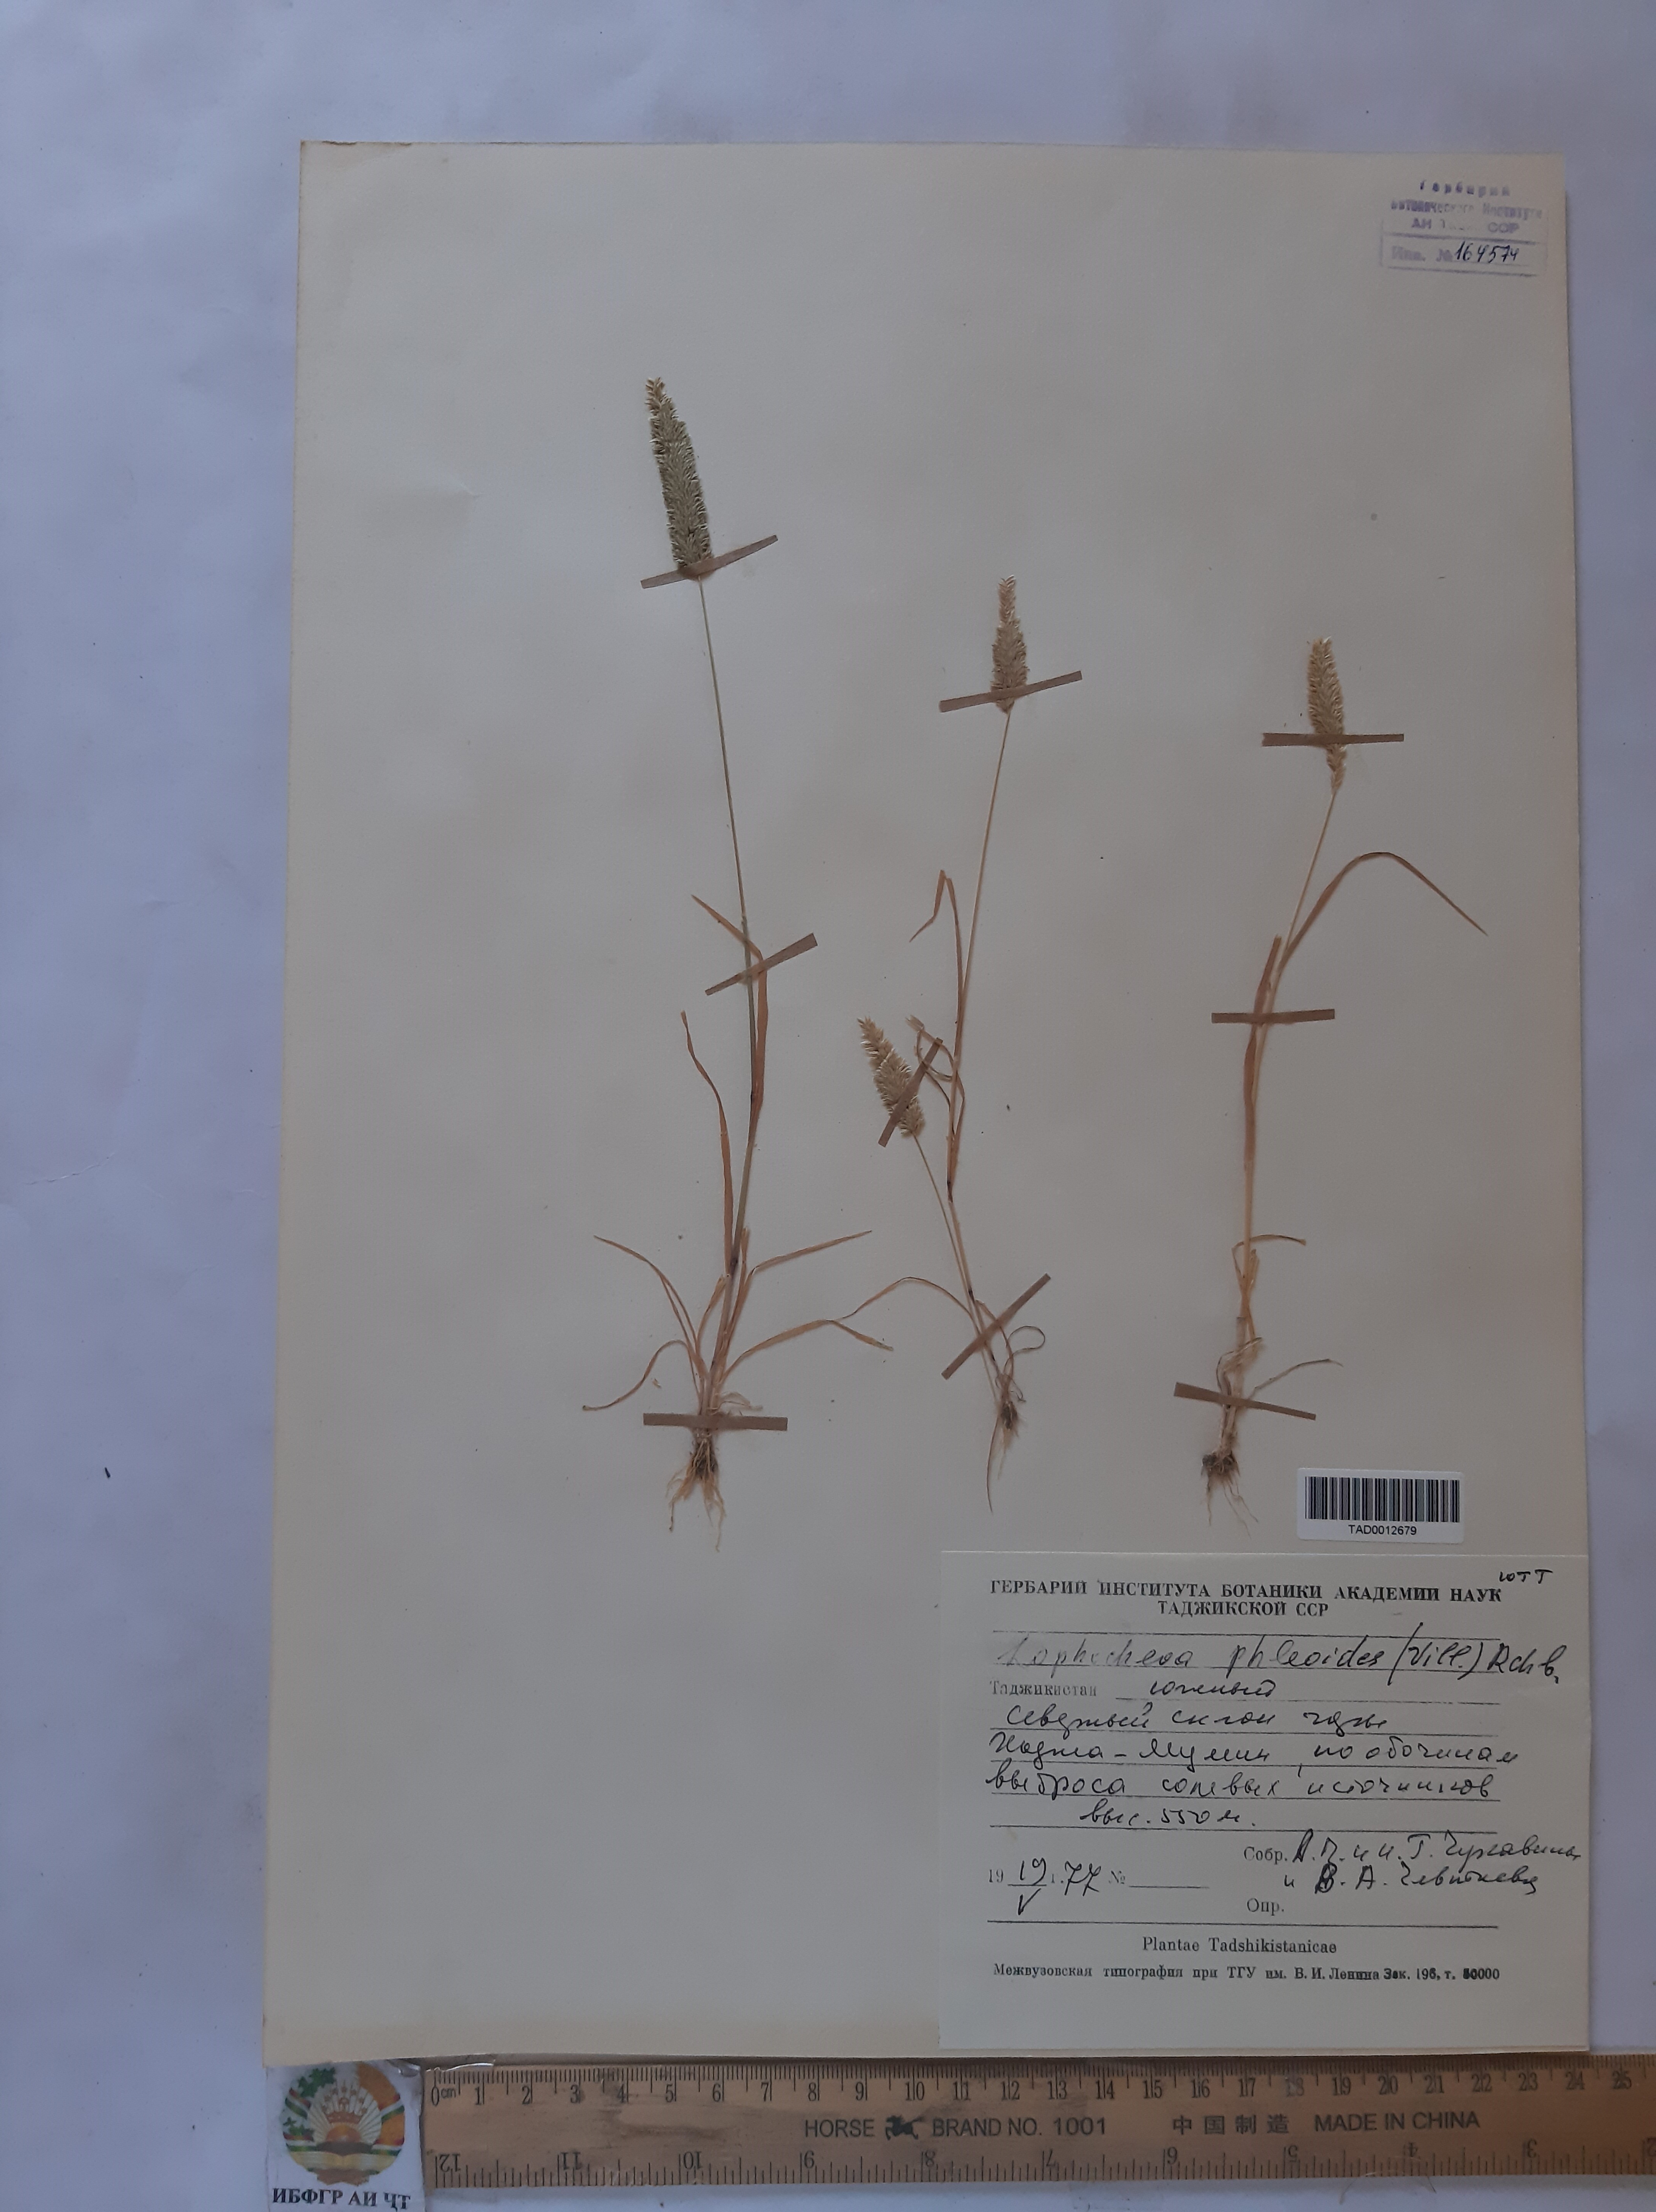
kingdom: Plantae
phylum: Tracheophyta
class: Liliopsida
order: Poales
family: Poaceae
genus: Rostraria
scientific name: Rostraria cristata
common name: Mediterranean hair-grass
